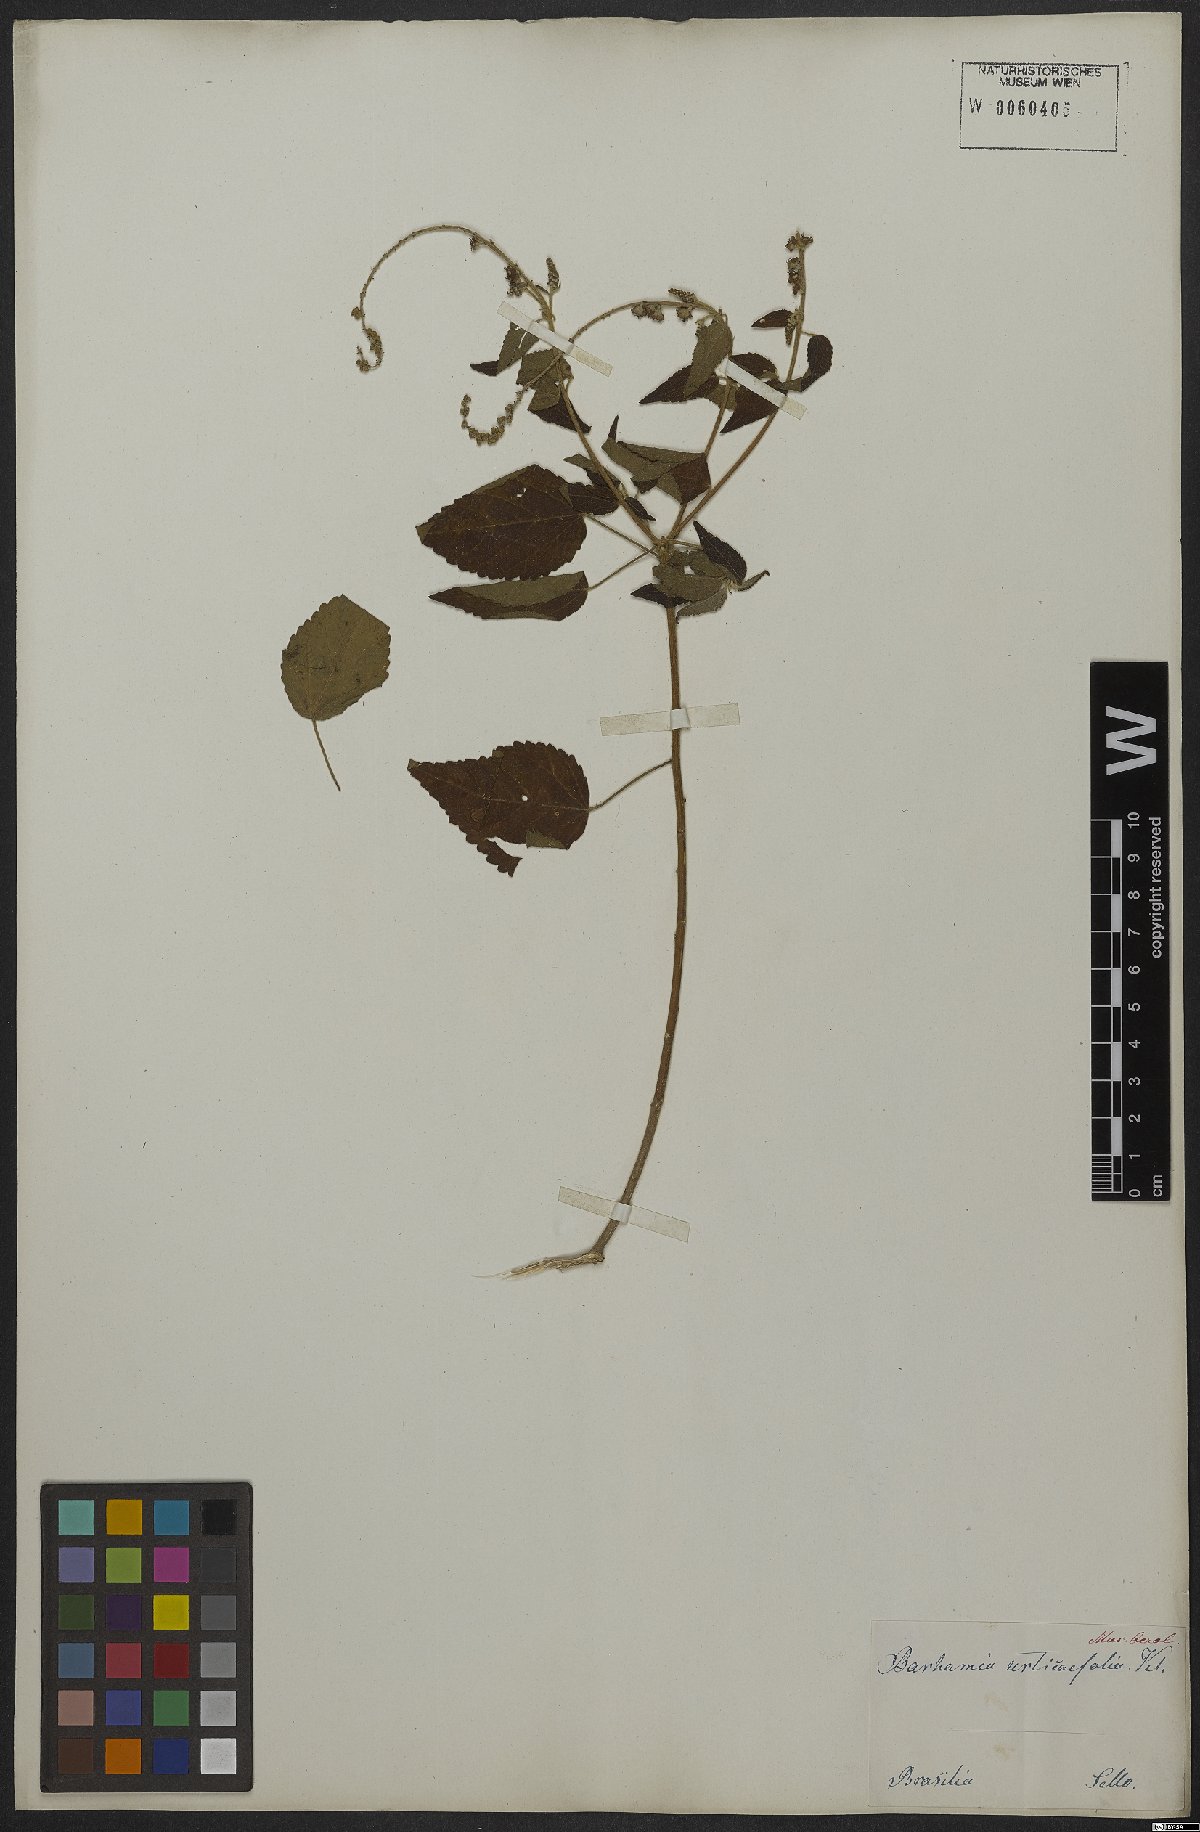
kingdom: Plantae
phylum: Tracheophyta
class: Magnoliopsida
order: Malpighiales
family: Euphorbiaceae
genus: Croton
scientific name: Croton urticifolius
